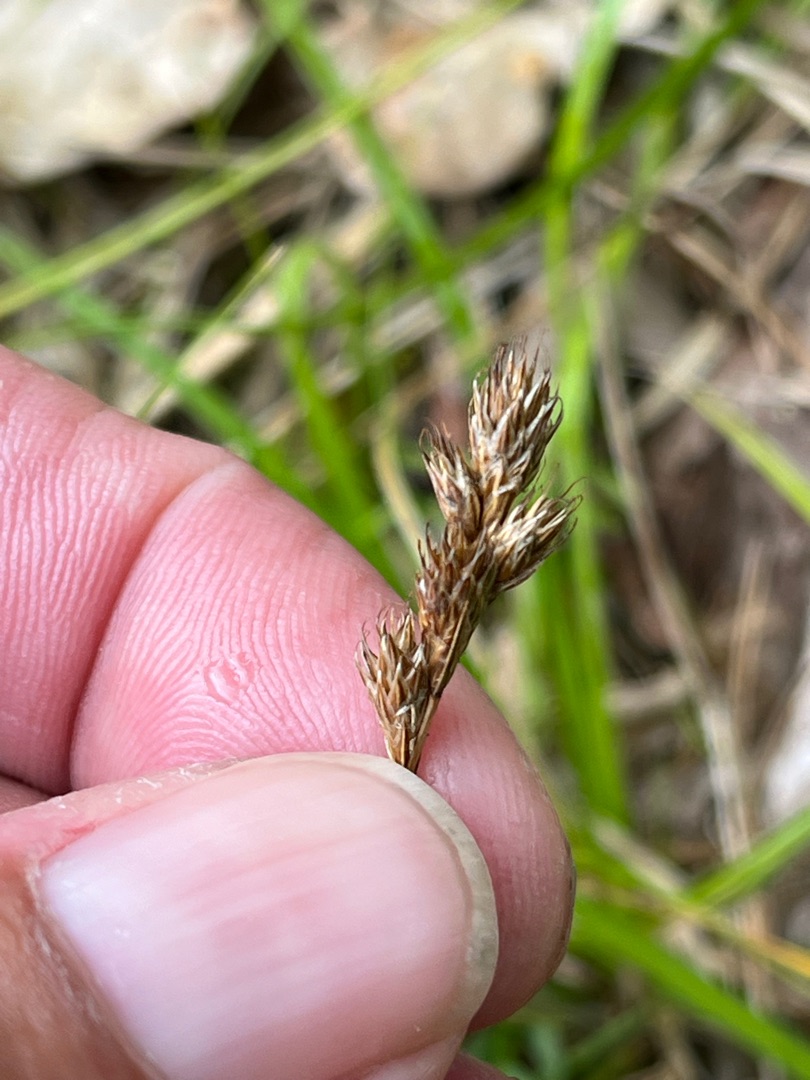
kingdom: Plantae
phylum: Tracheophyta
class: Liliopsida
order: Poales
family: Cyperaceae
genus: Carex
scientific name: Carex leporina
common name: Hare-star
